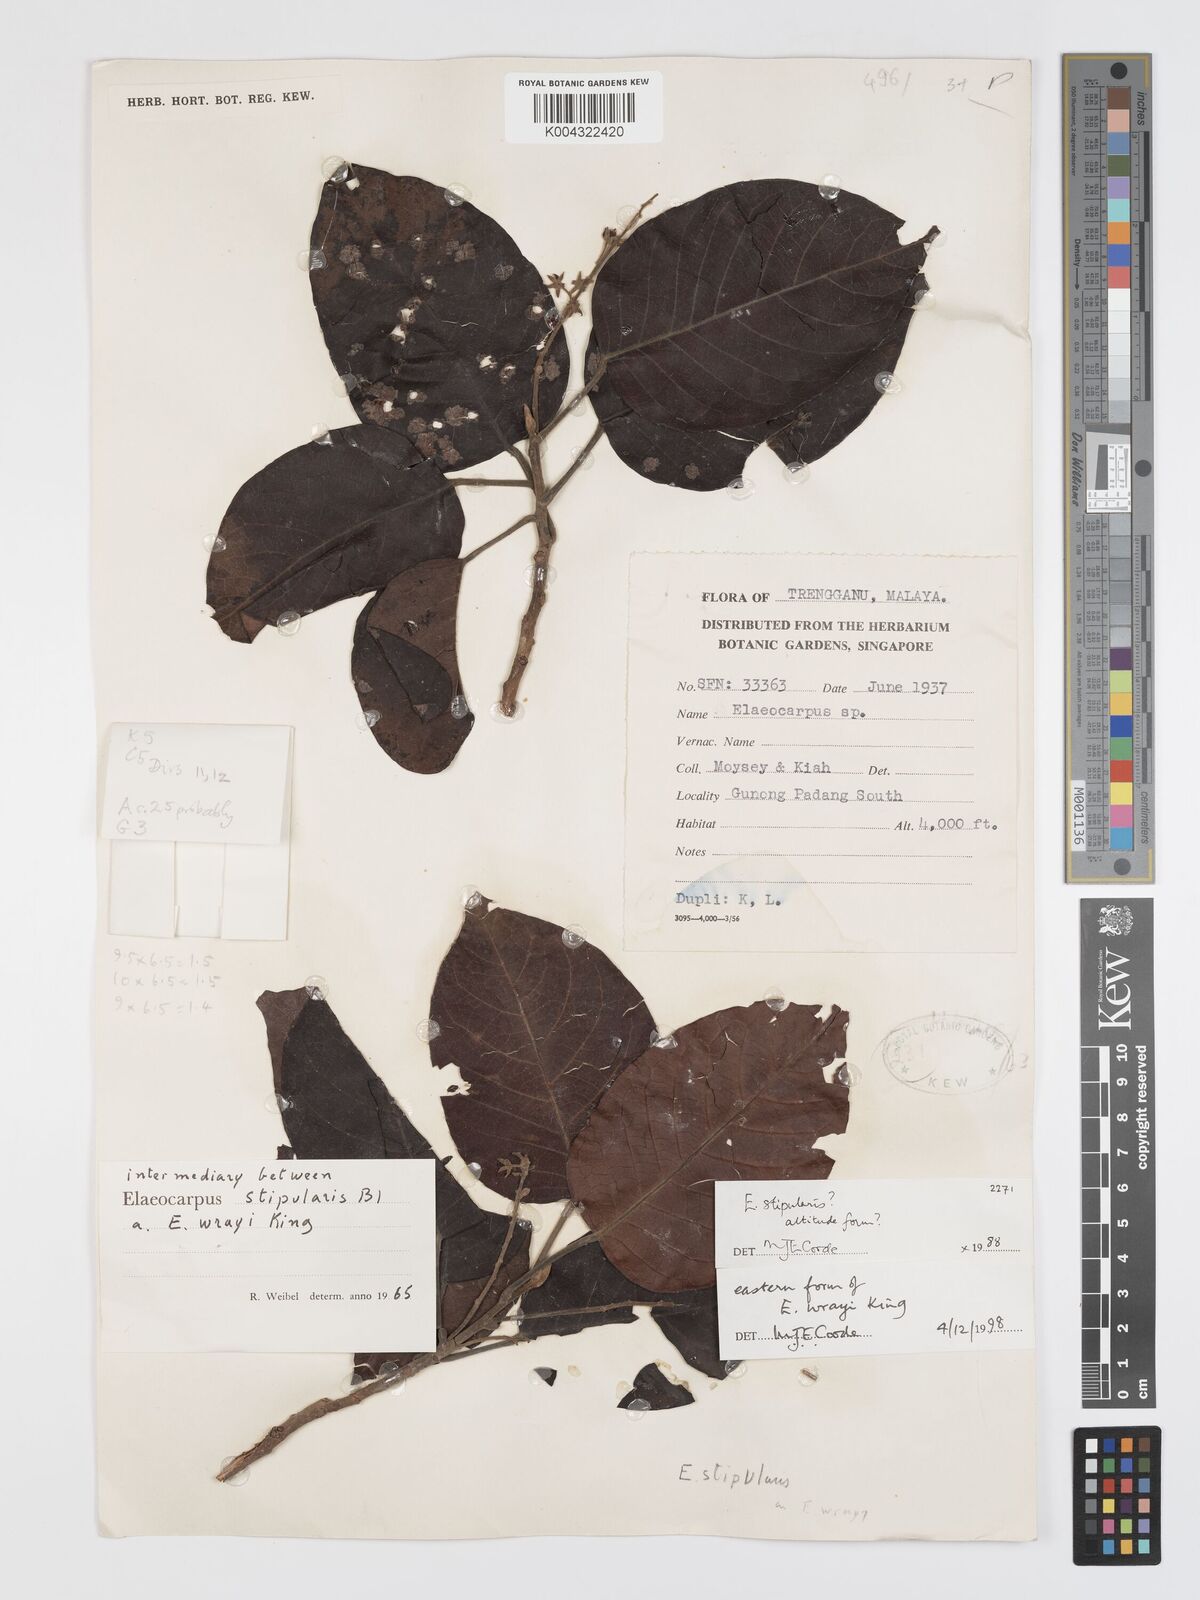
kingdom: Plantae
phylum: Tracheophyta
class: Magnoliopsida
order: Oxalidales
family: Elaeocarpaceae
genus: Elaeocarpus
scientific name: Elaeocarpus nitidus
